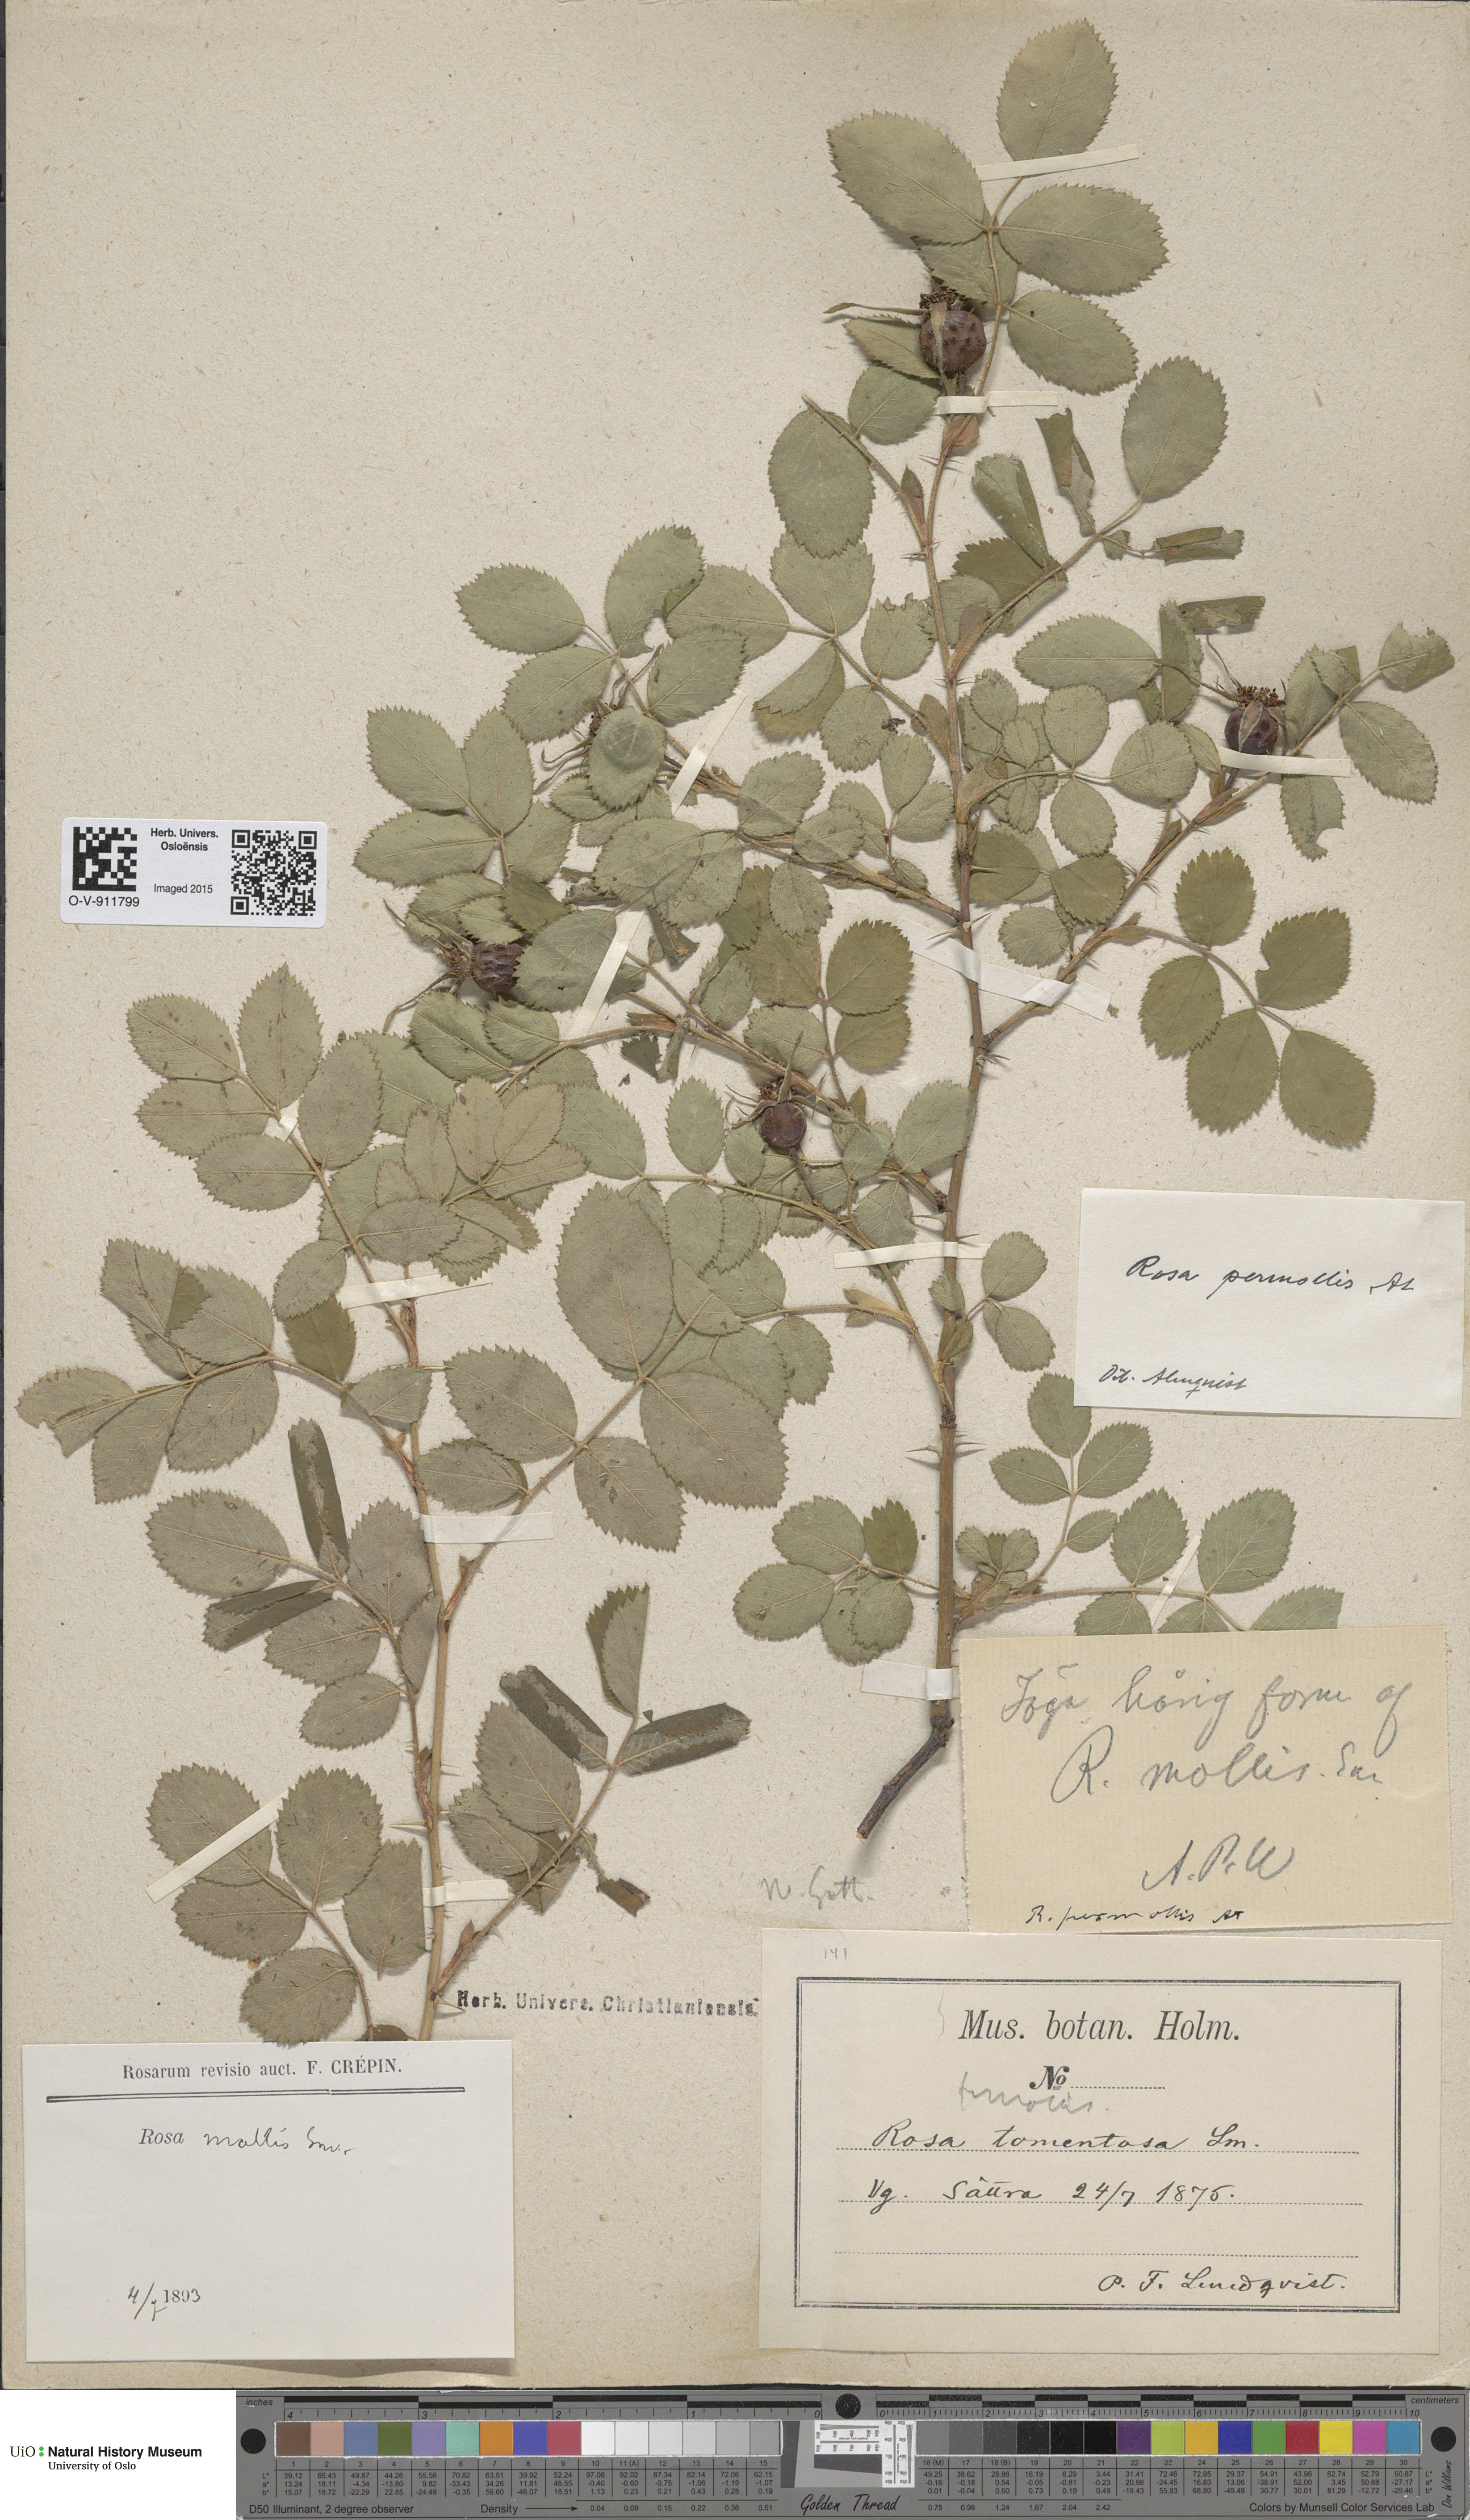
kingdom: Plantae
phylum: Tracheophyta
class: Magnoliopsida
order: Rosales
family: Rosaceae
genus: Rosa
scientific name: Rosa mollis
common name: Rose
